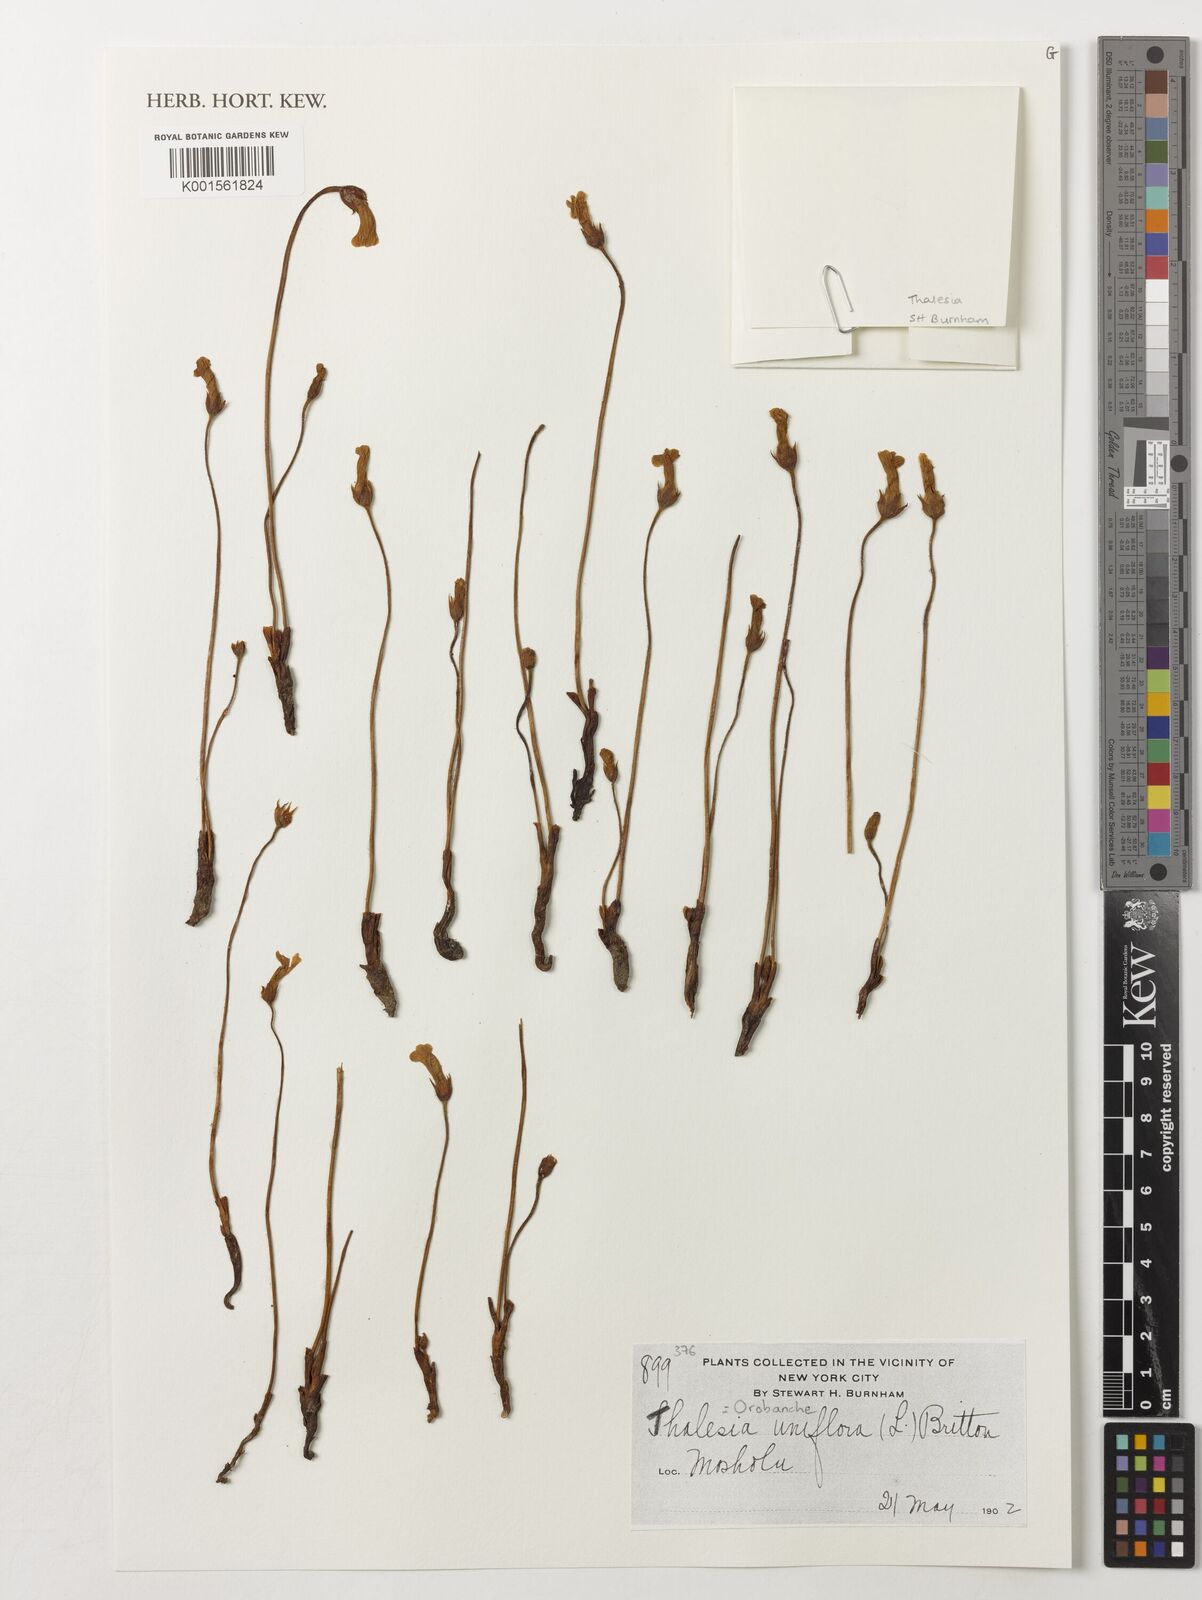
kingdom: Plantae
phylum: Tracheophyta
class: Magnoliopsida
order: Lamiales
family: Orobanchaceae
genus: Aphyllon
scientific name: Aphyllon uniflorum
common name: One-flowered broomrape
